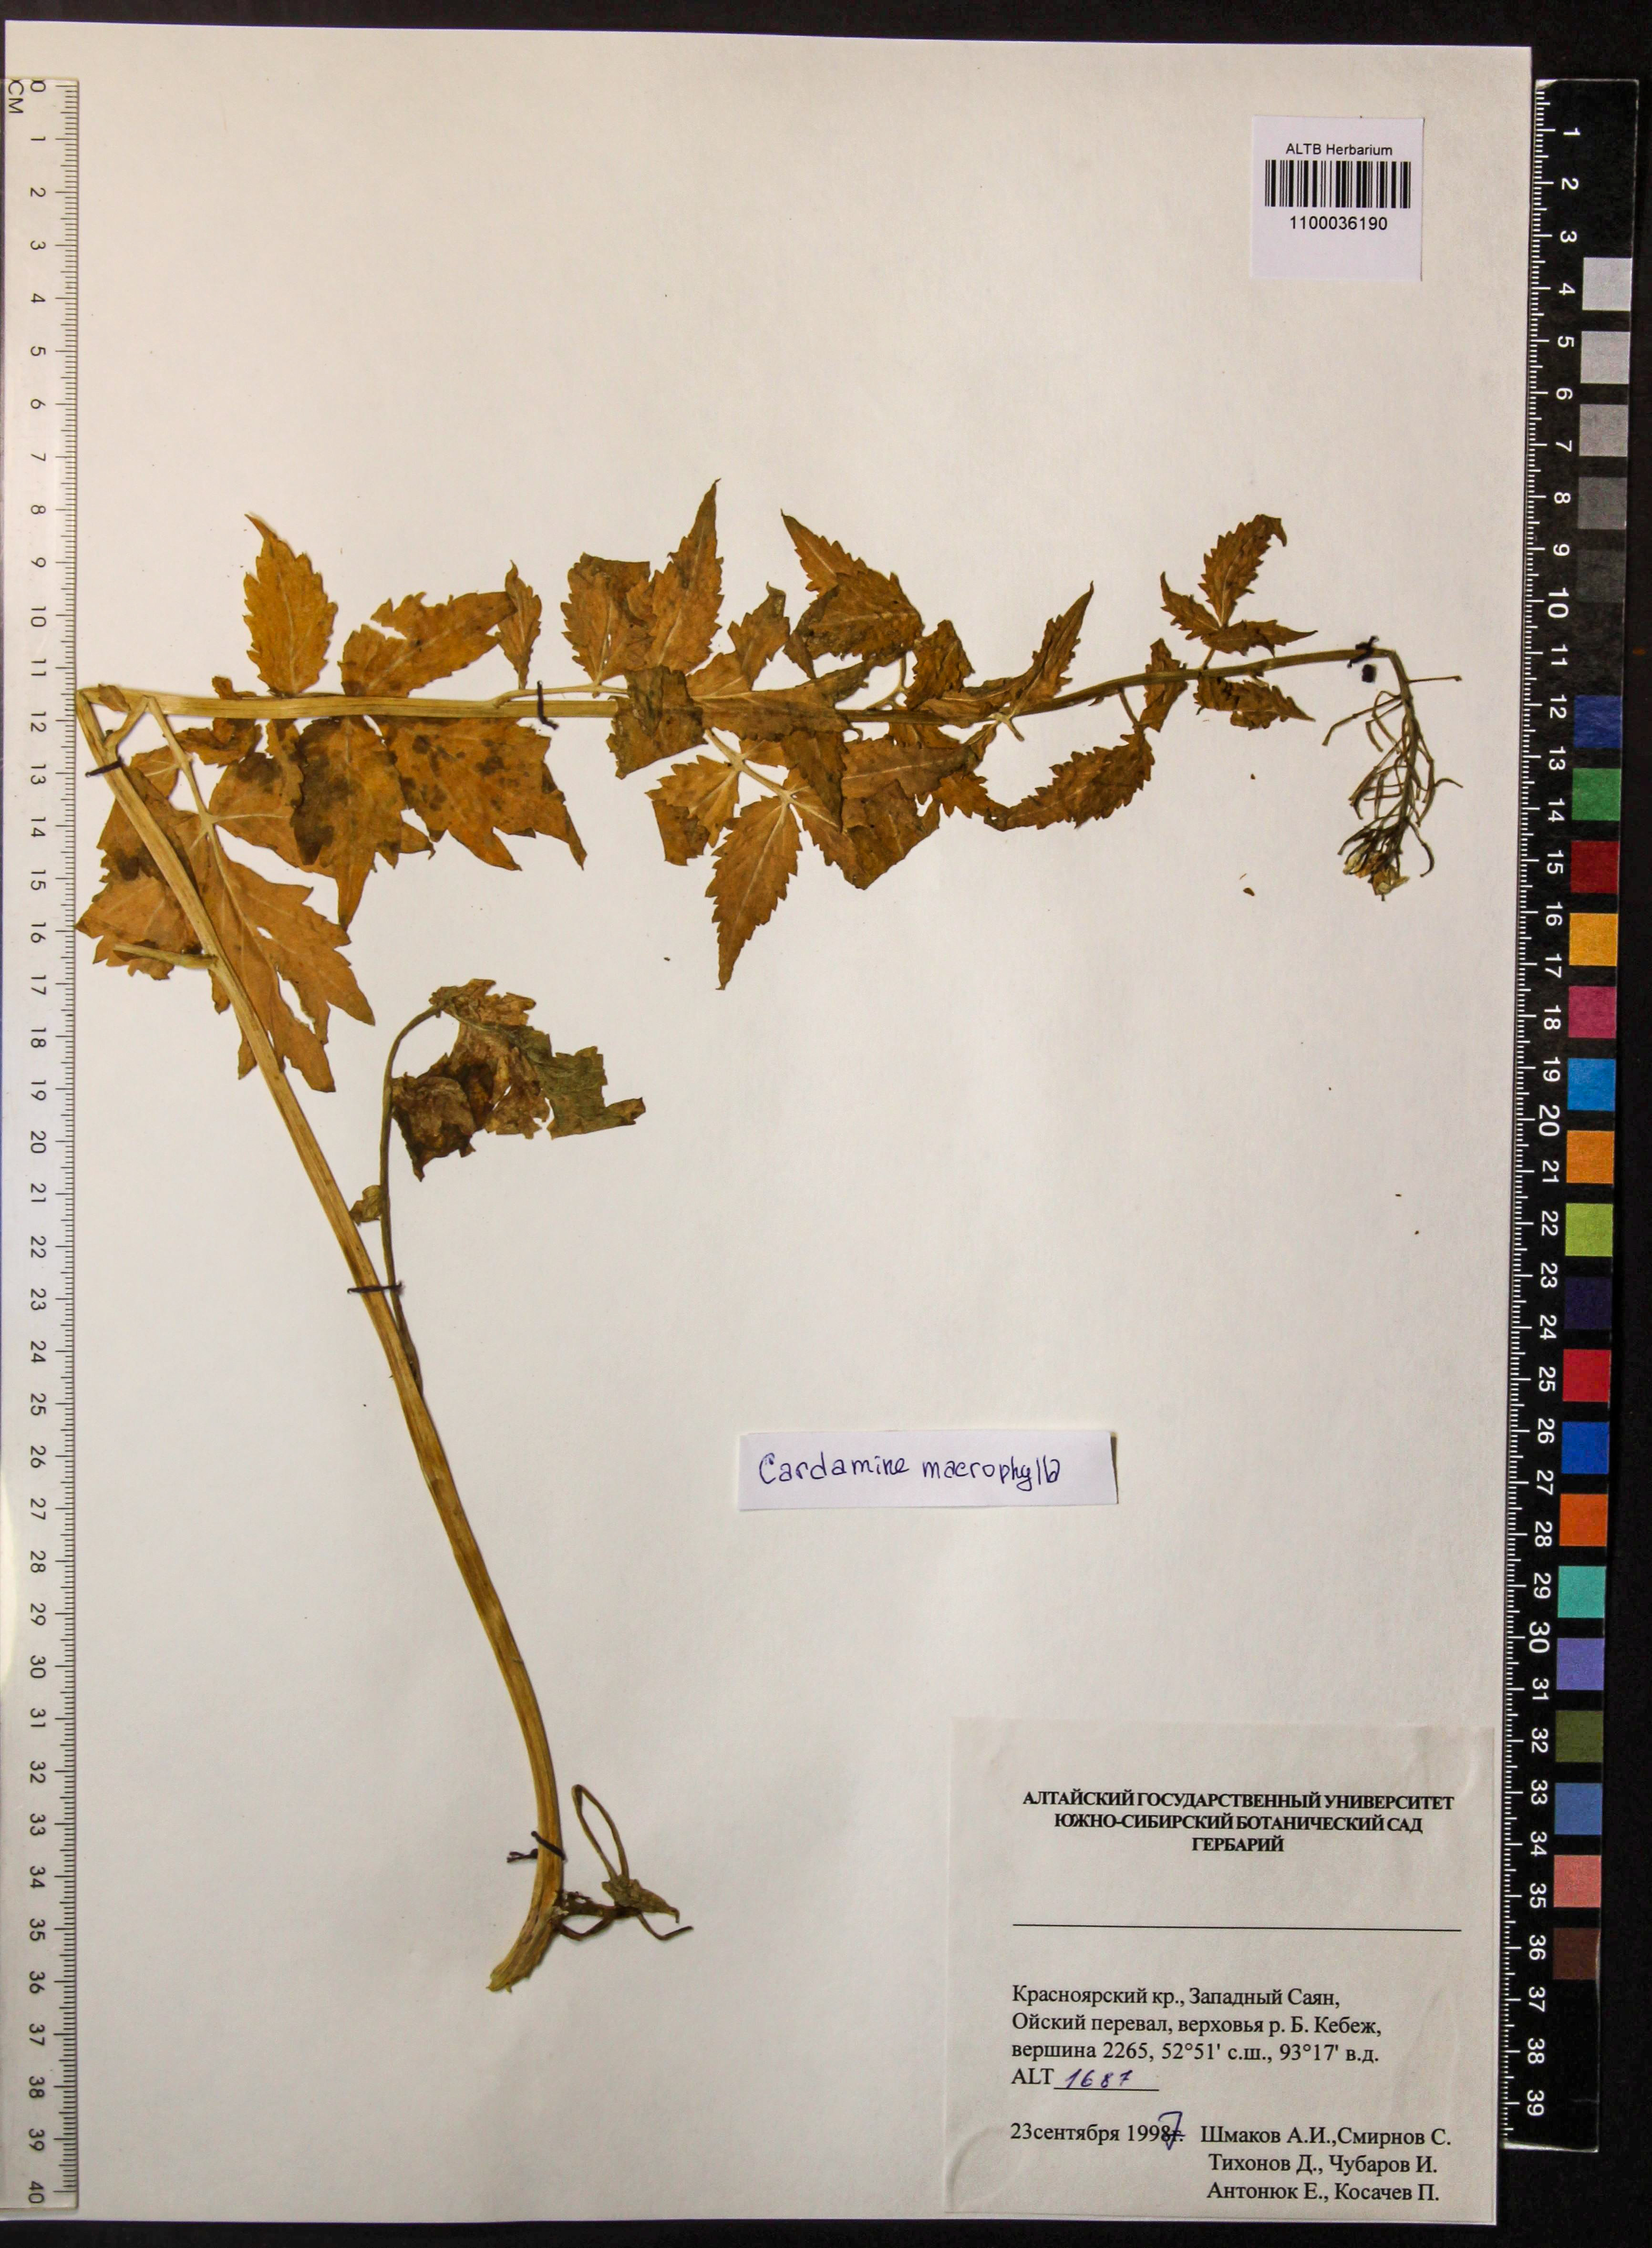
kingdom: Plantae
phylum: Tracheophyta
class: Magnoliopsida
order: Brassicales
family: Brassicaceae
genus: Cardamine
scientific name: Cardamine macrophylla
